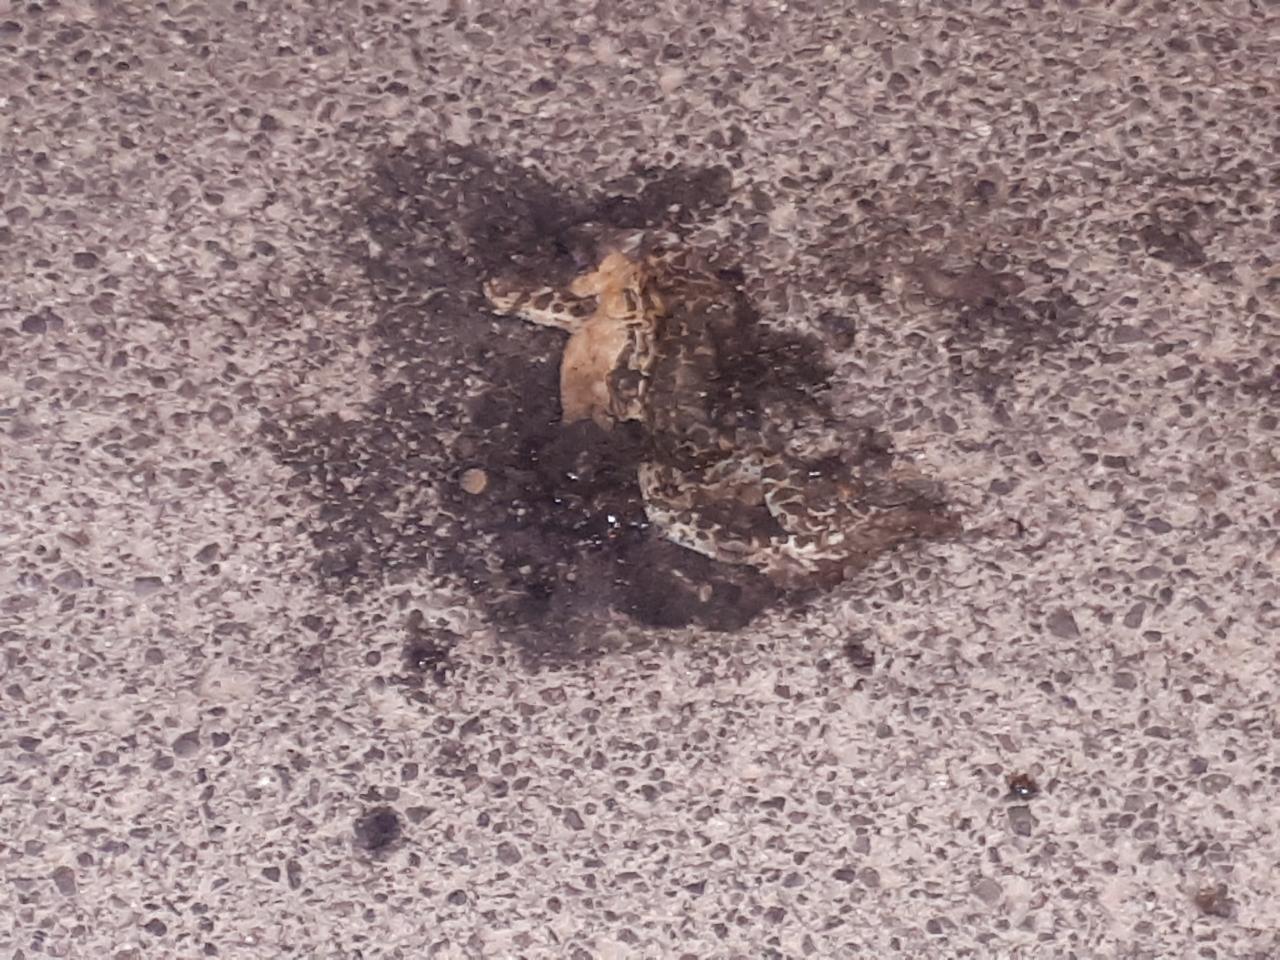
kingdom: Animalia
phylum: Chordata
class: Amphibia
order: Anura
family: Bufonidae
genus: Bufotes
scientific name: Bufotes viridis
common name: European green toad
